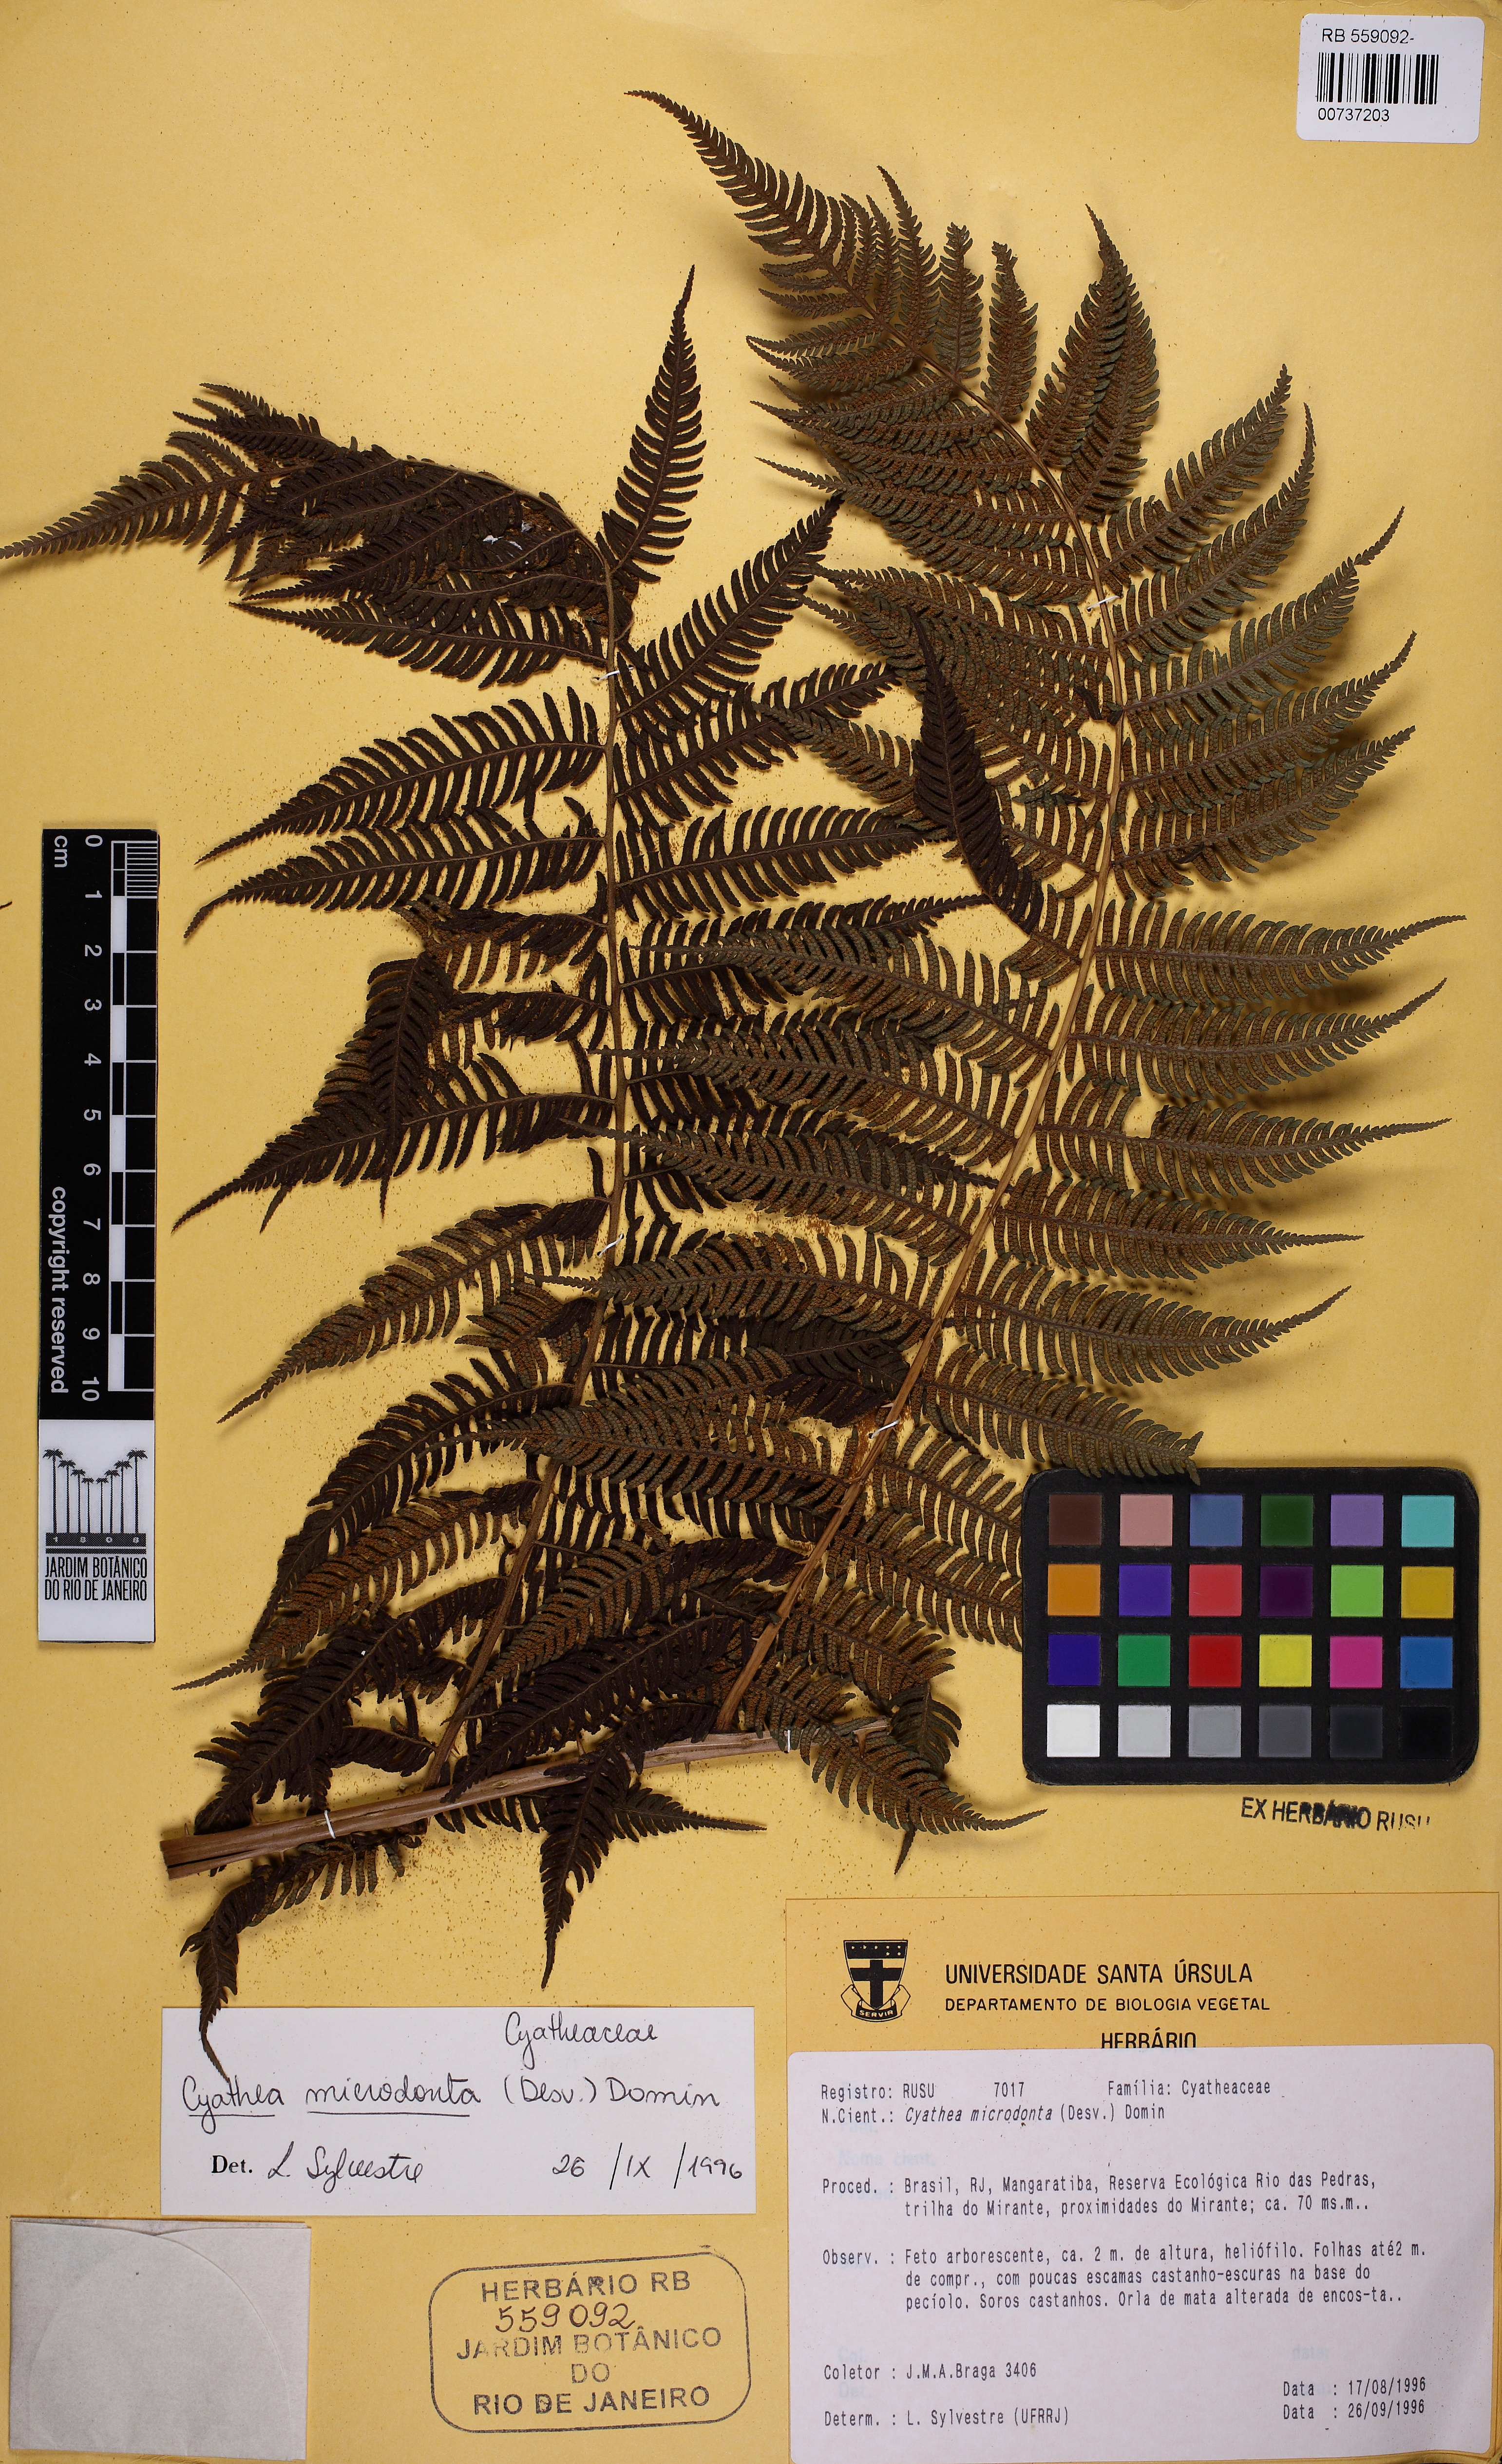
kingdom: Plantae
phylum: Tracheophyta
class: Polypodiopsida
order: Cyatheales
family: Cyatheaceae
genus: Cyathea
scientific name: Cyathea microdonta
